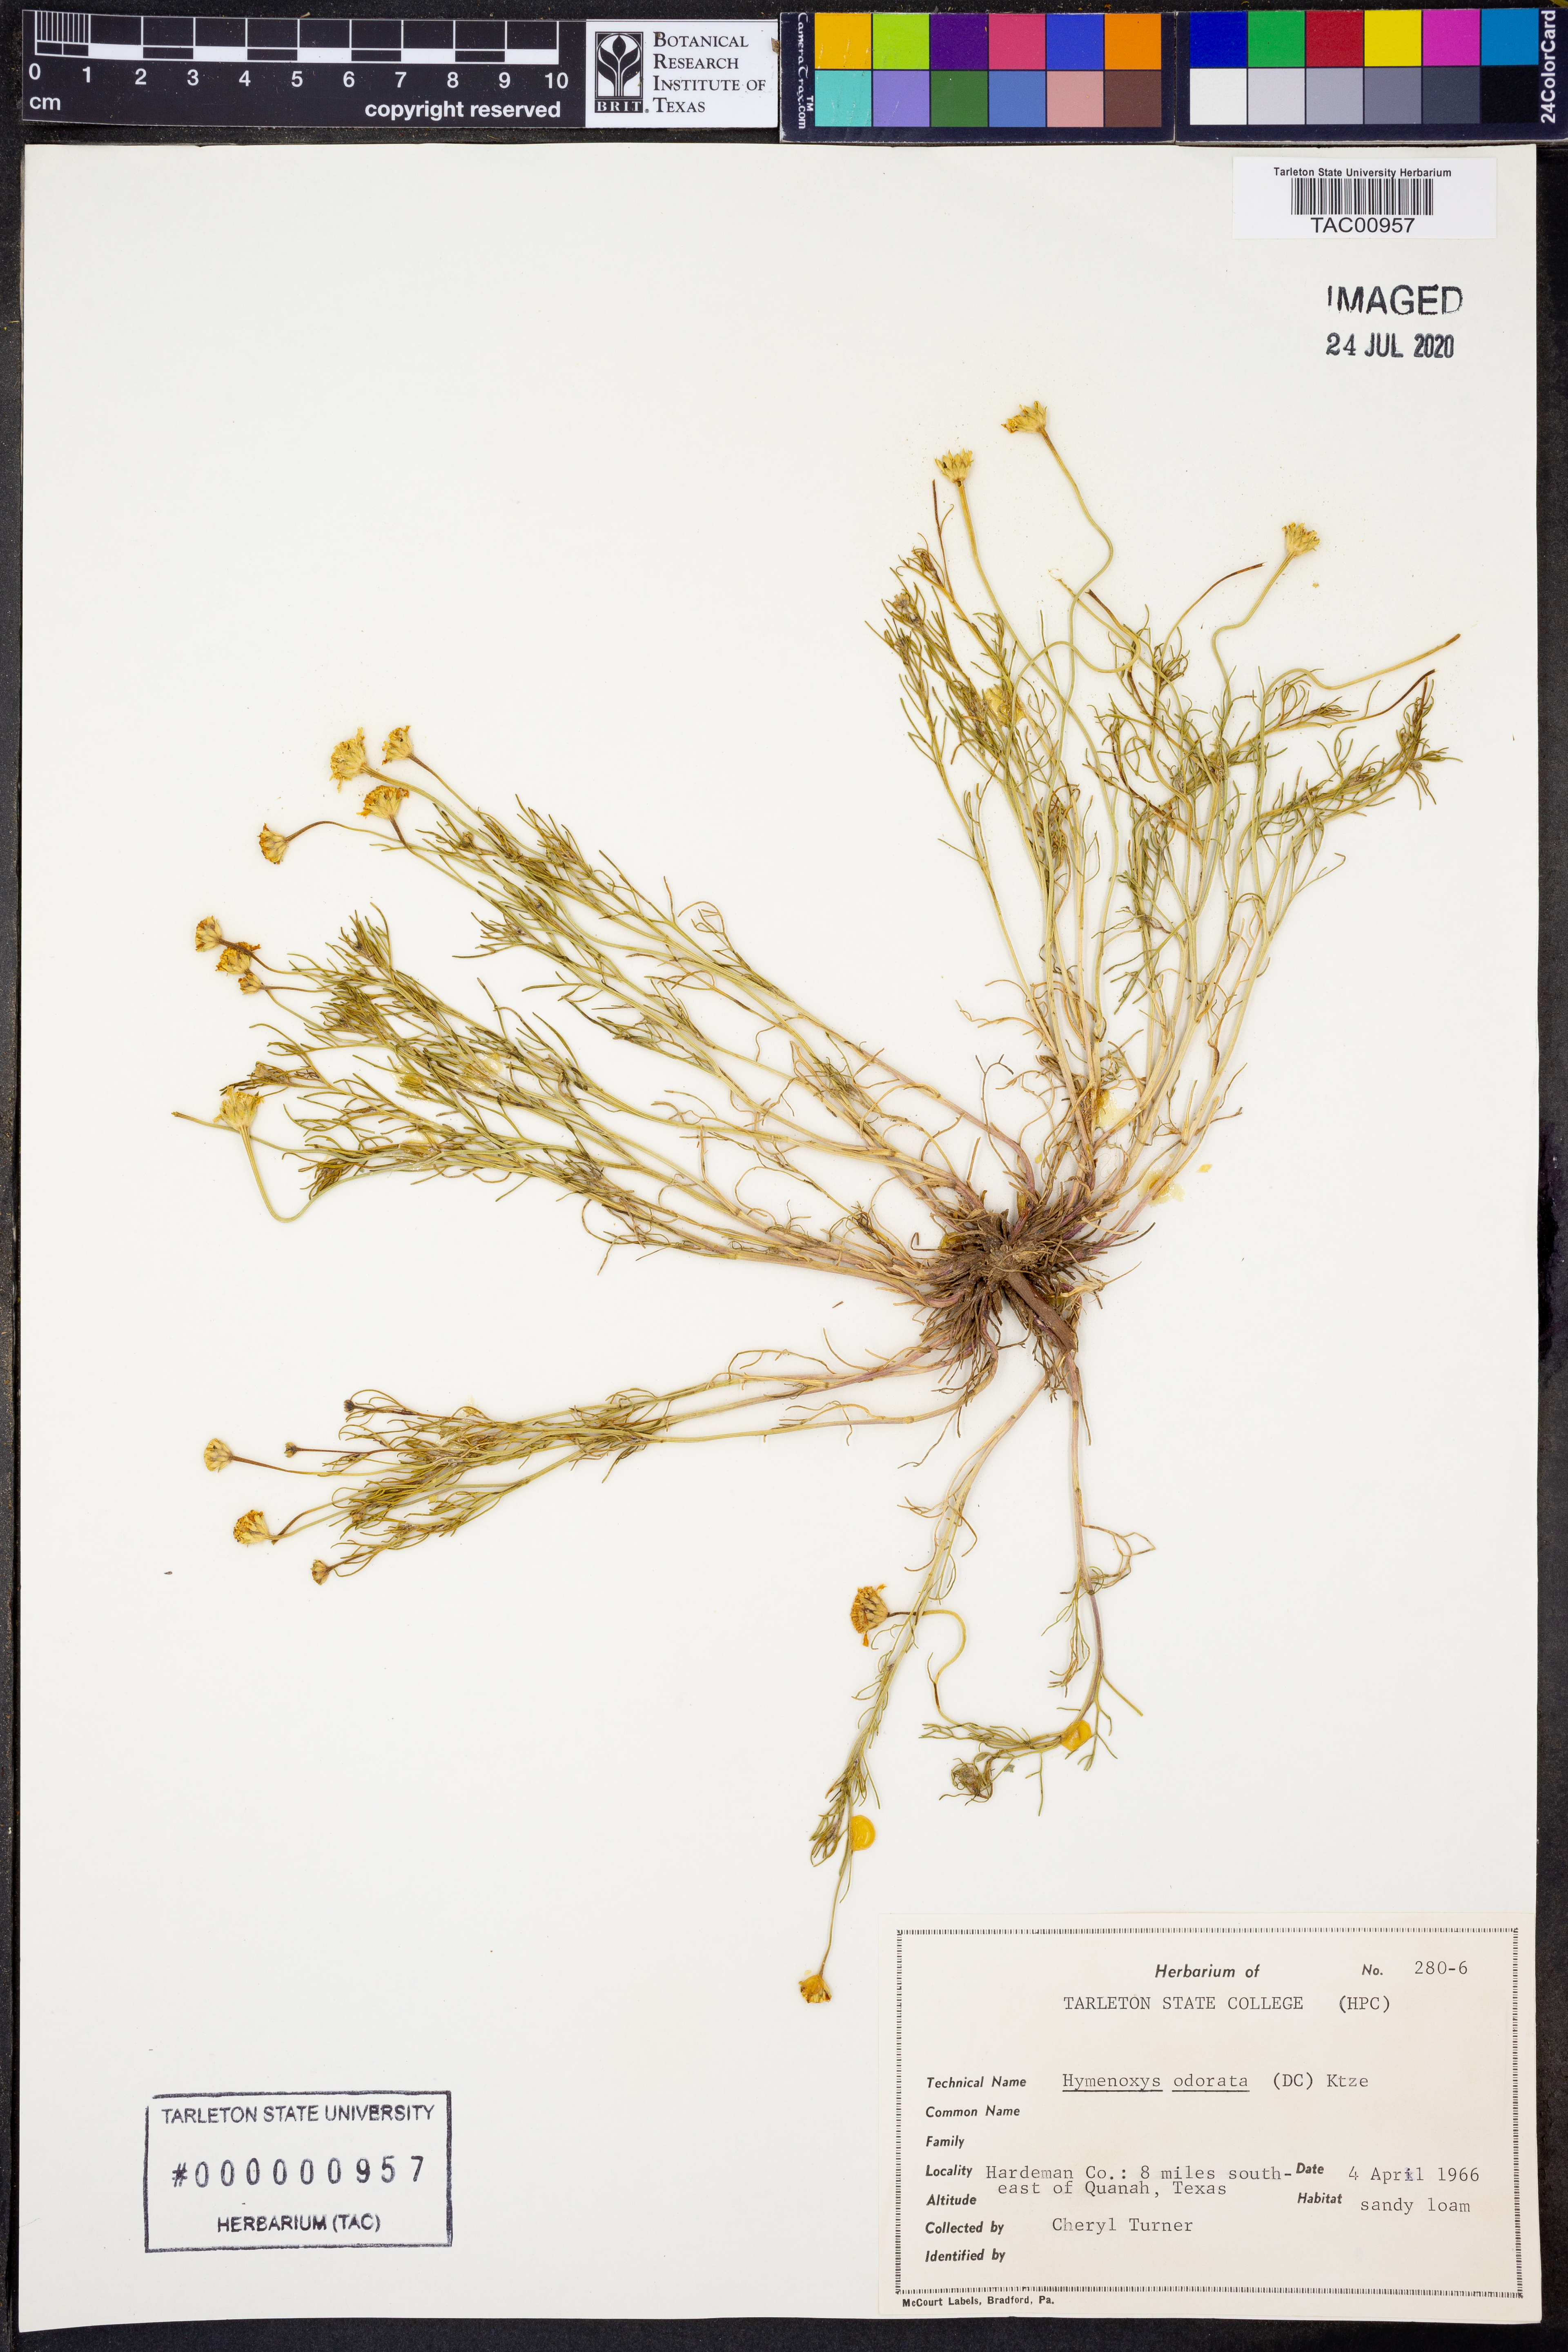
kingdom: Plantae
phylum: Tracheophyta
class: Magnoliopsida
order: Asterales
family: Asteraceae
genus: Hymenoxys
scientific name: Hymenoxys odorata
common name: Bitter rubberweed
